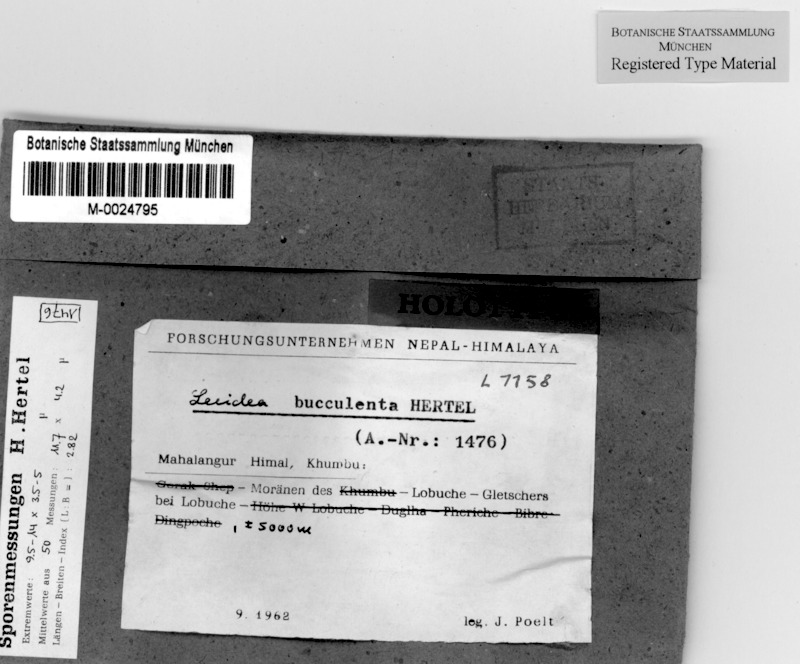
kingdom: Fungi
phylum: Ascomycota
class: Lecanoromycetes
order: Lecideales
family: Lecideaceae
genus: Lecidea
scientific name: Lecidea
